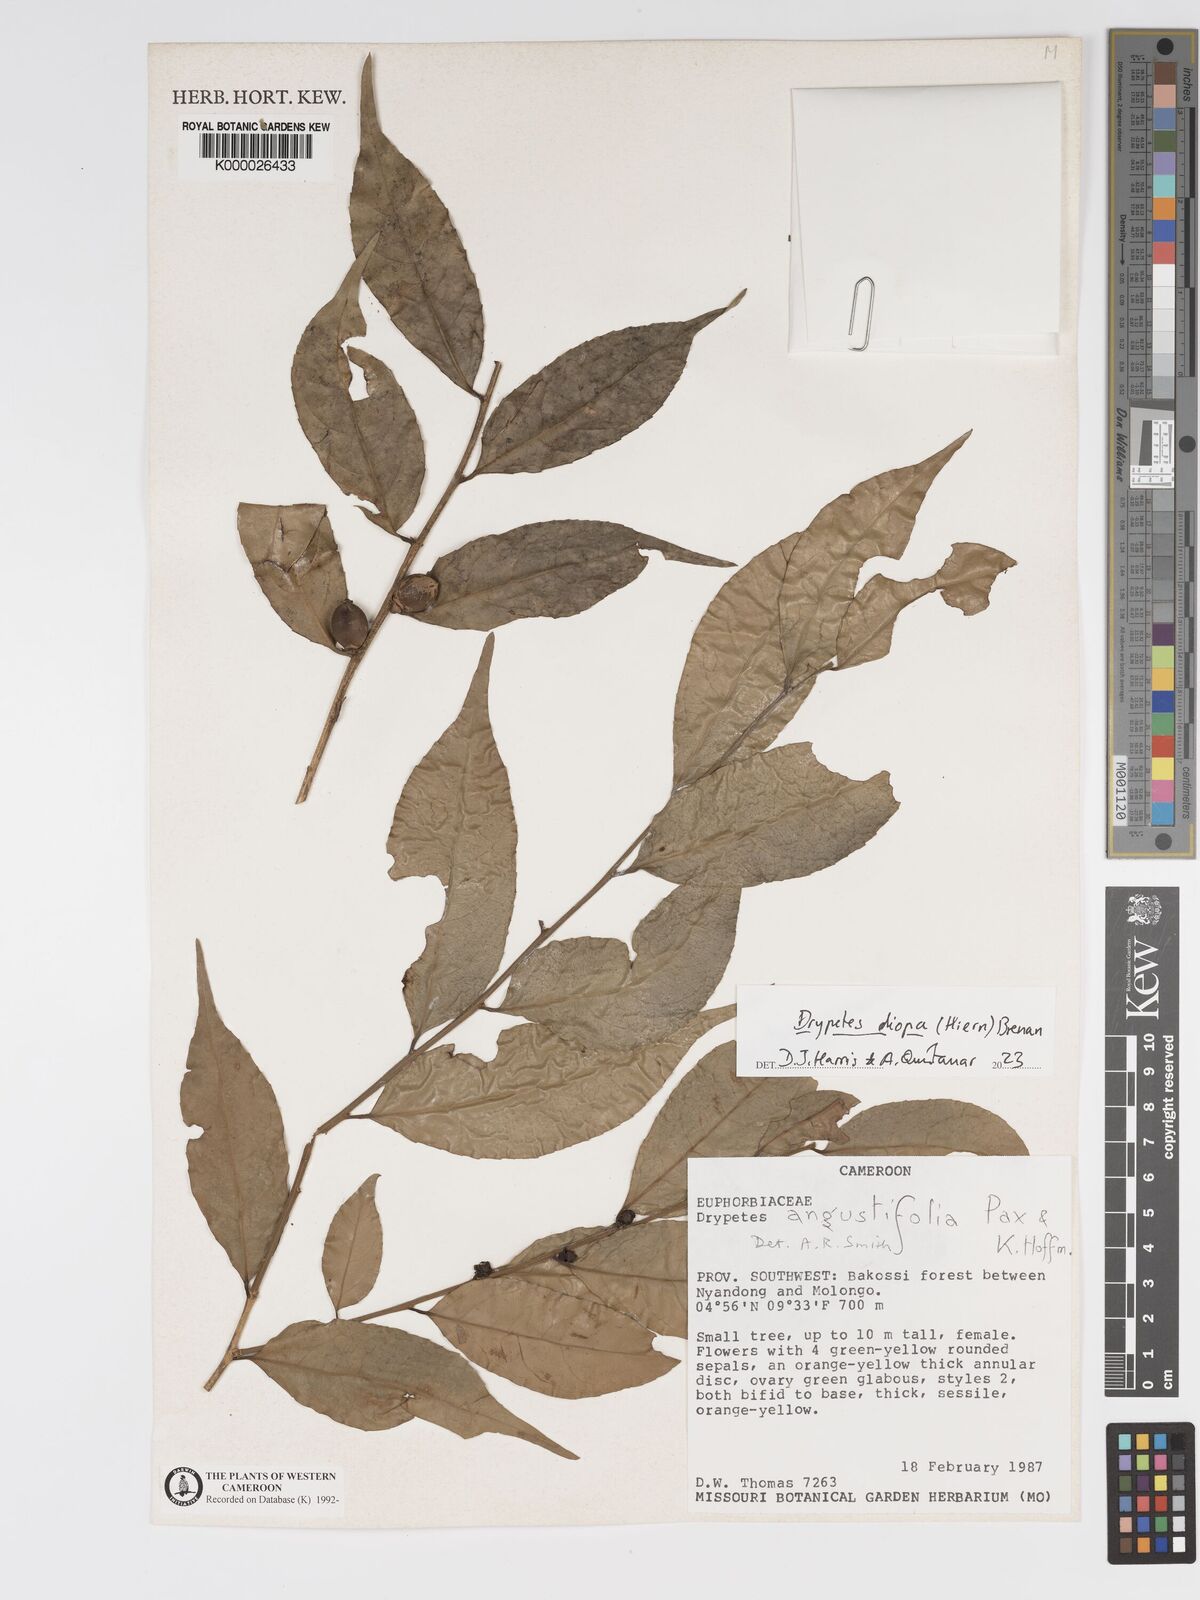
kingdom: Plantae
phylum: Tracheophyta
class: Magnoliopsida
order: Malpighiales
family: Putranjivaceae
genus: Drypetes
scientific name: Drypetes angustifolia
